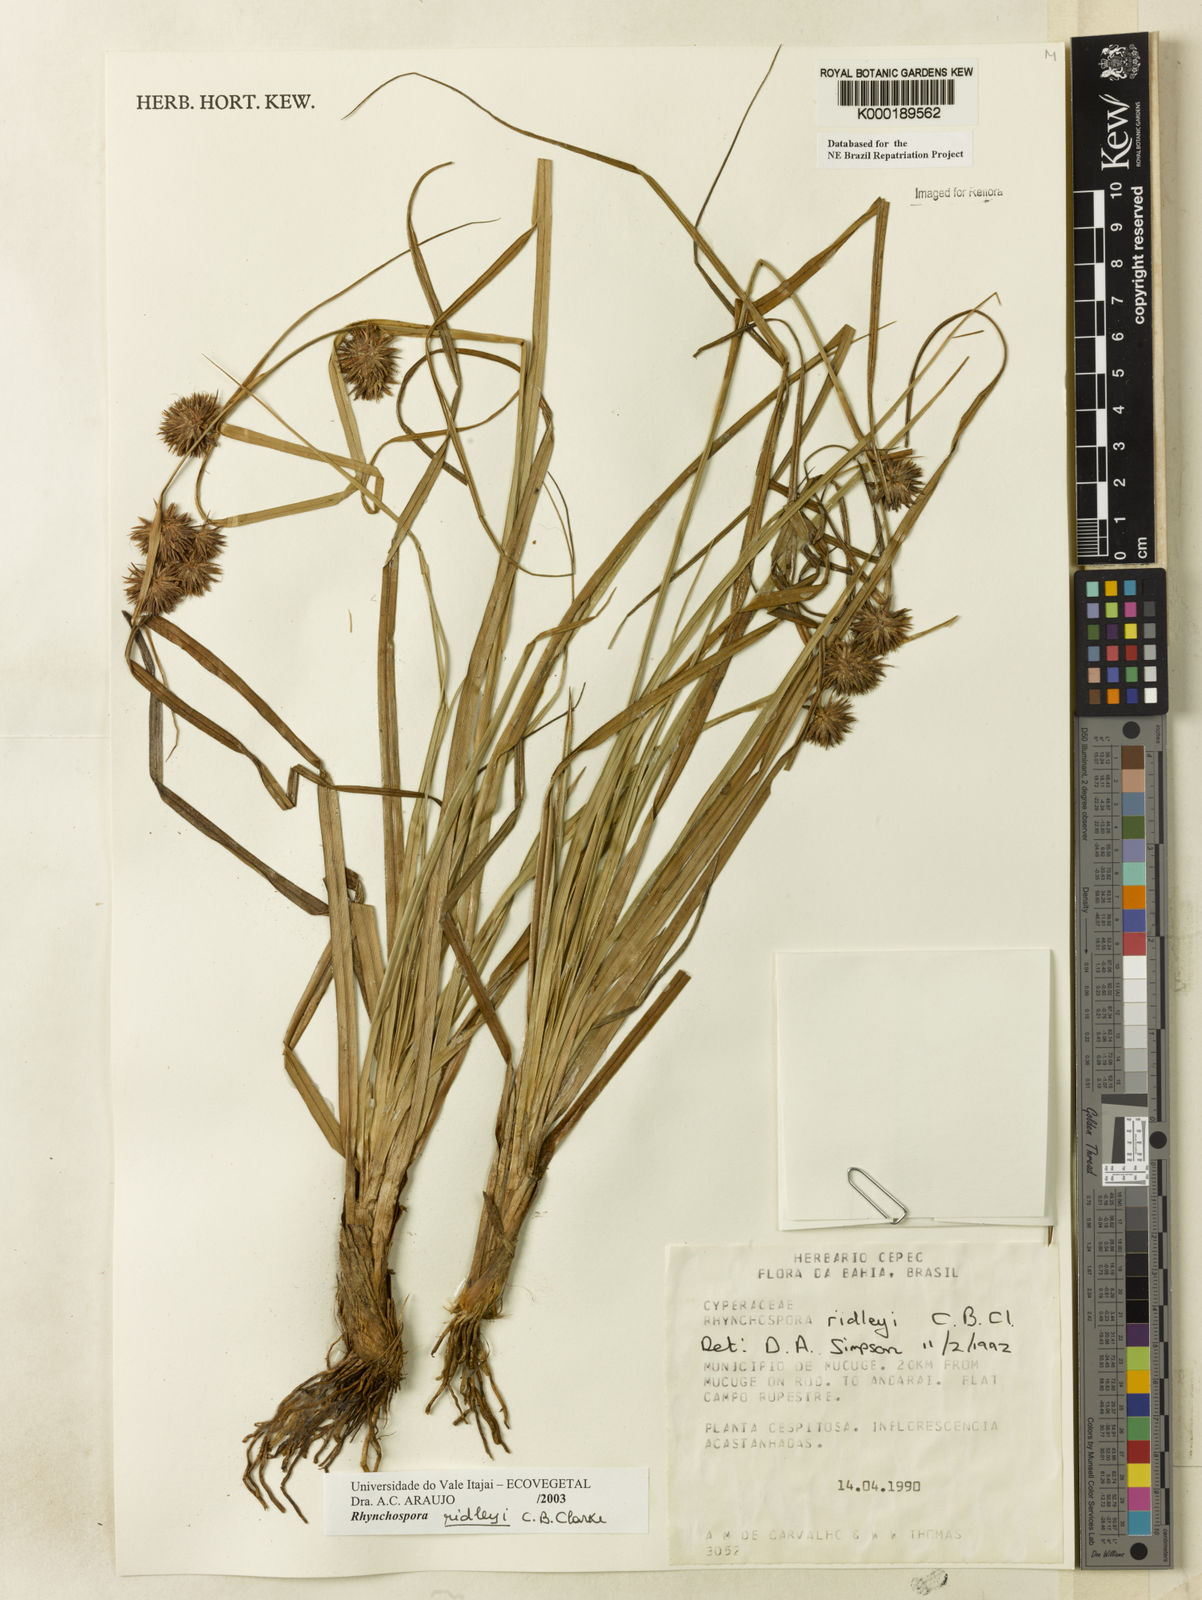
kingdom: Plantae
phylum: Tracheophyta
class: Liliopsida
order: Poales
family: Cyperaceae
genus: Rhynchospora
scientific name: Rhynchospora ridleyi
